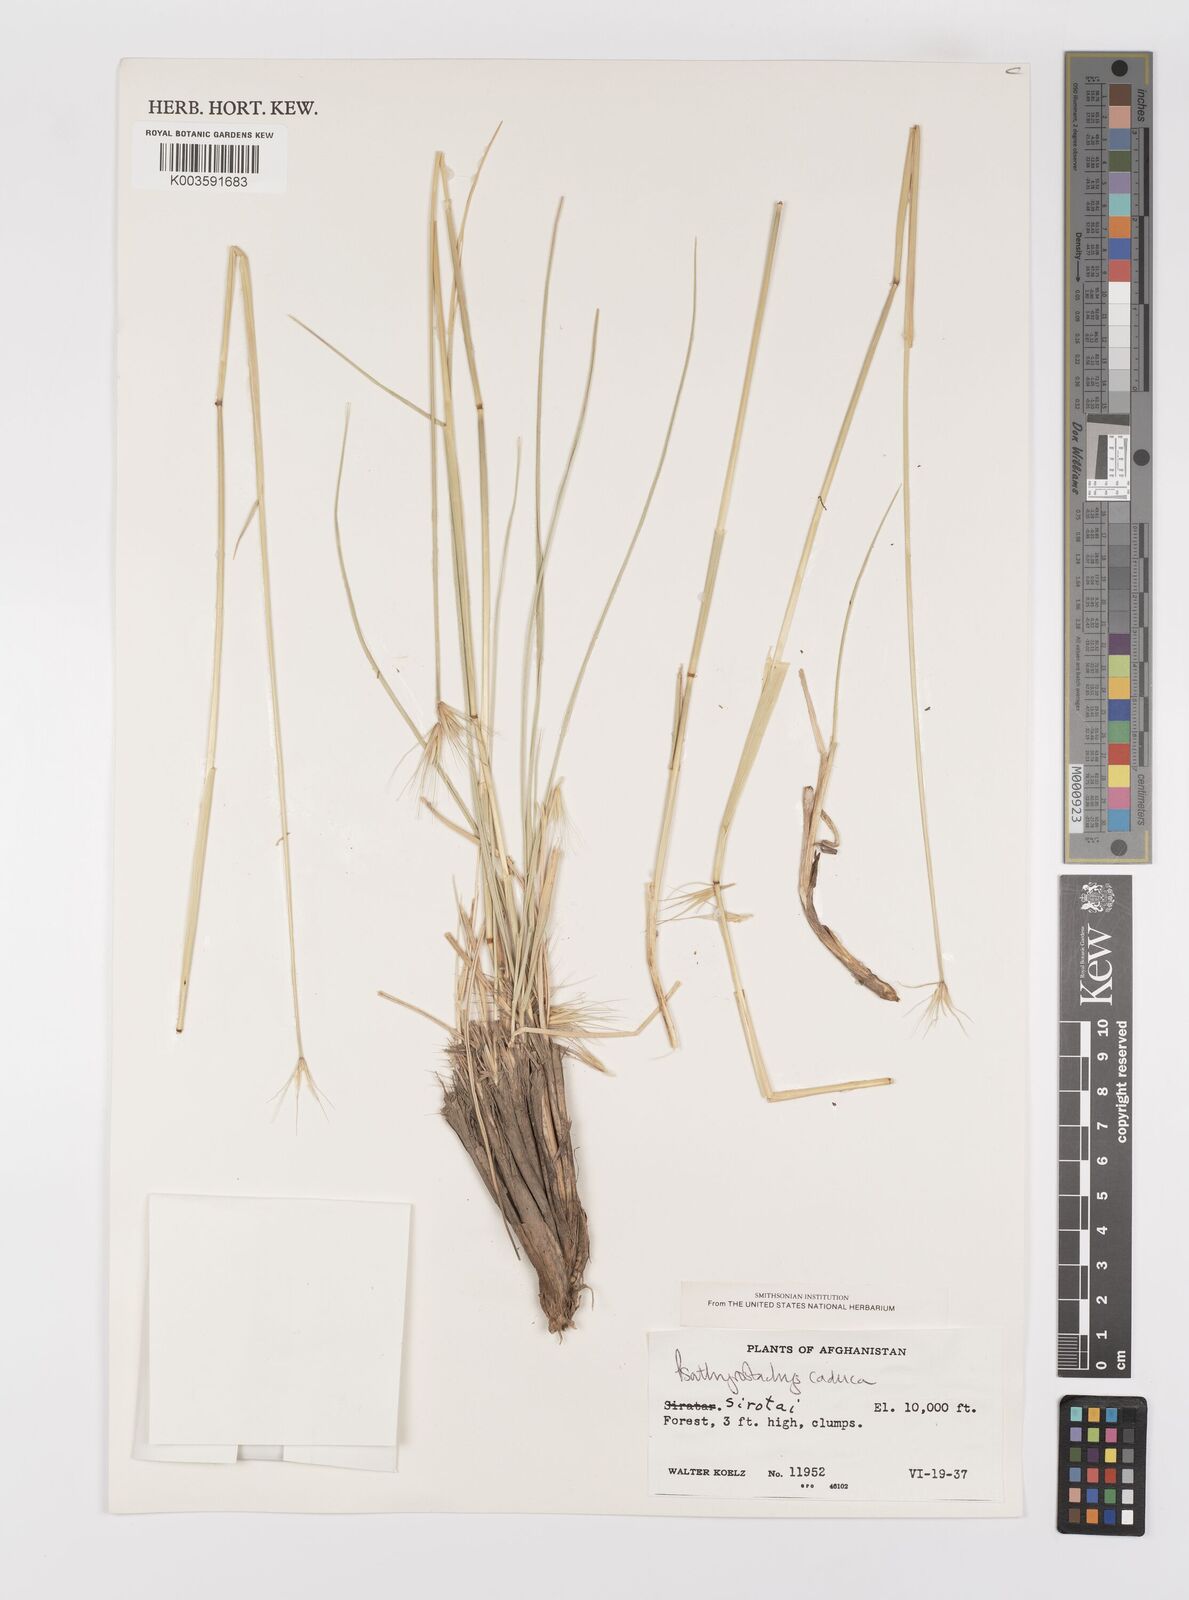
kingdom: Plantae
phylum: Tracheophyta
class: Liliopsida
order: Poales
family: Poaceae
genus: Psathyrostachys
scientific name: Psathyrostachys caduca
